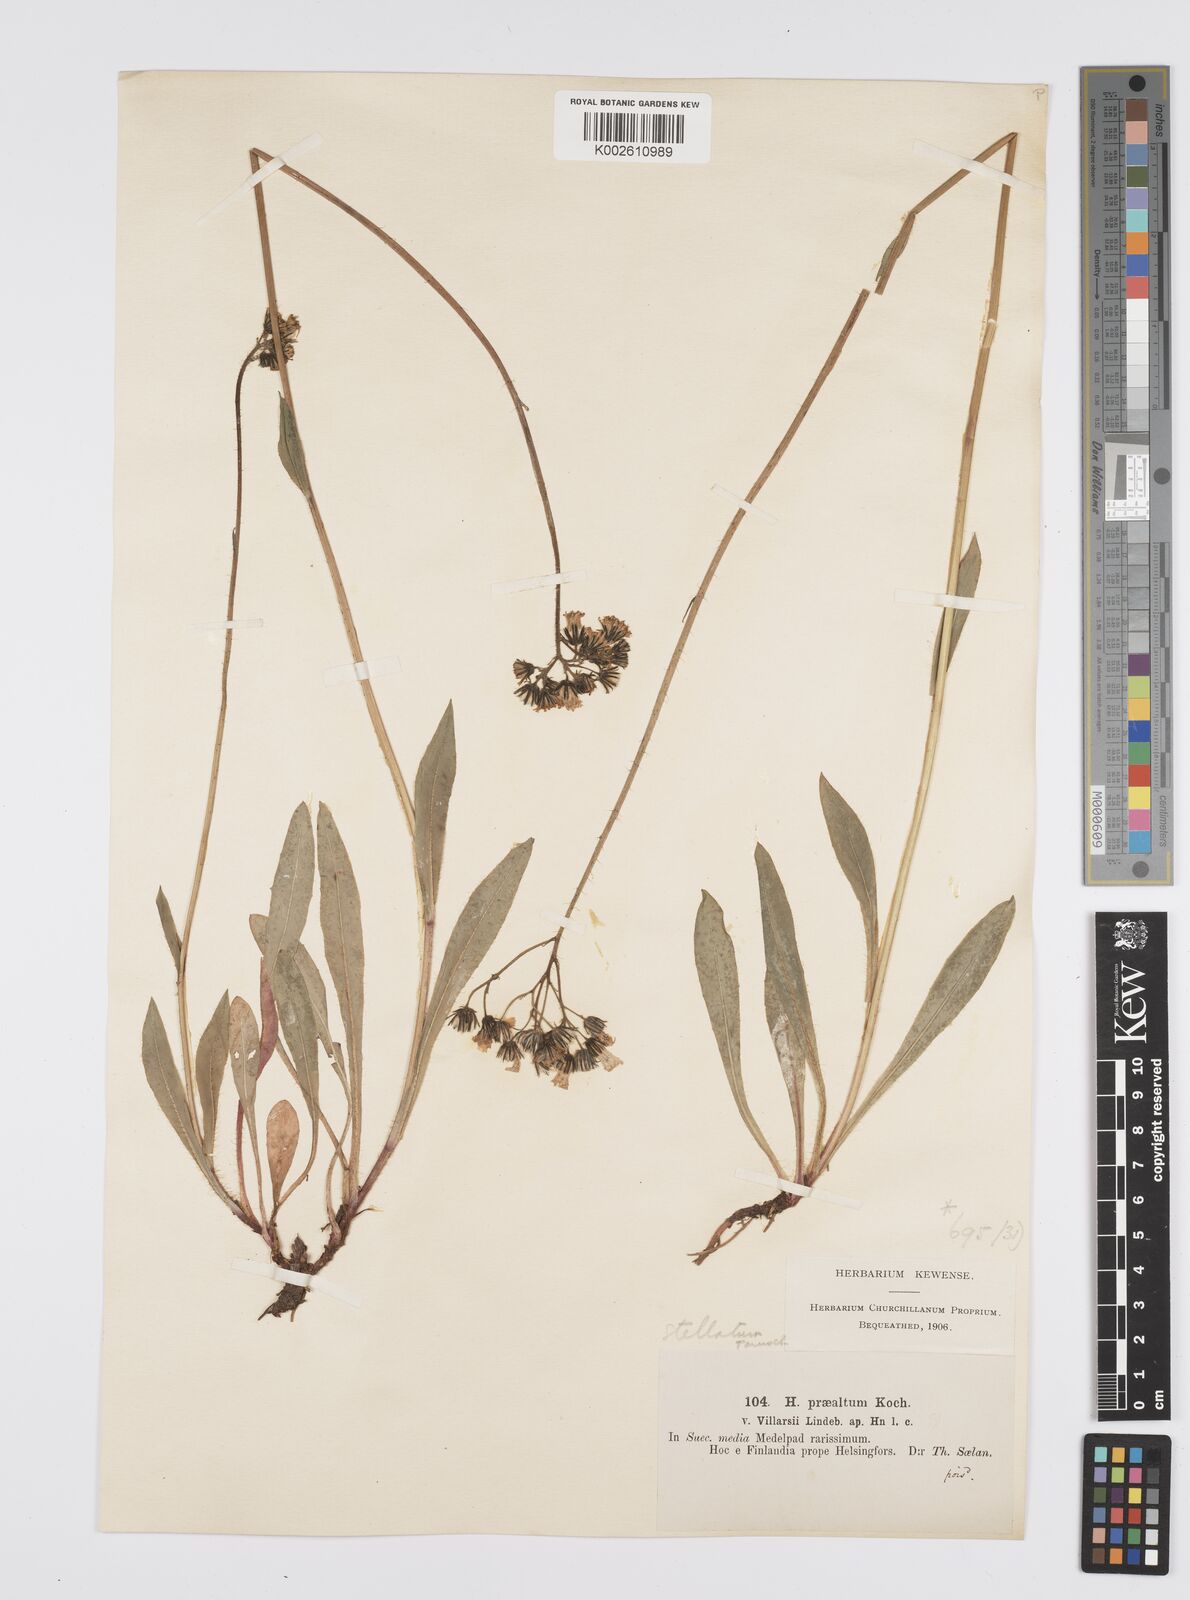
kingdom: Plantae
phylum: Tracheophyta
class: Magnoliopsida
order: Asterales
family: Asteraceae
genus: Pilosella
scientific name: Pilosella piloselloides
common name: Glaucous king-devil
